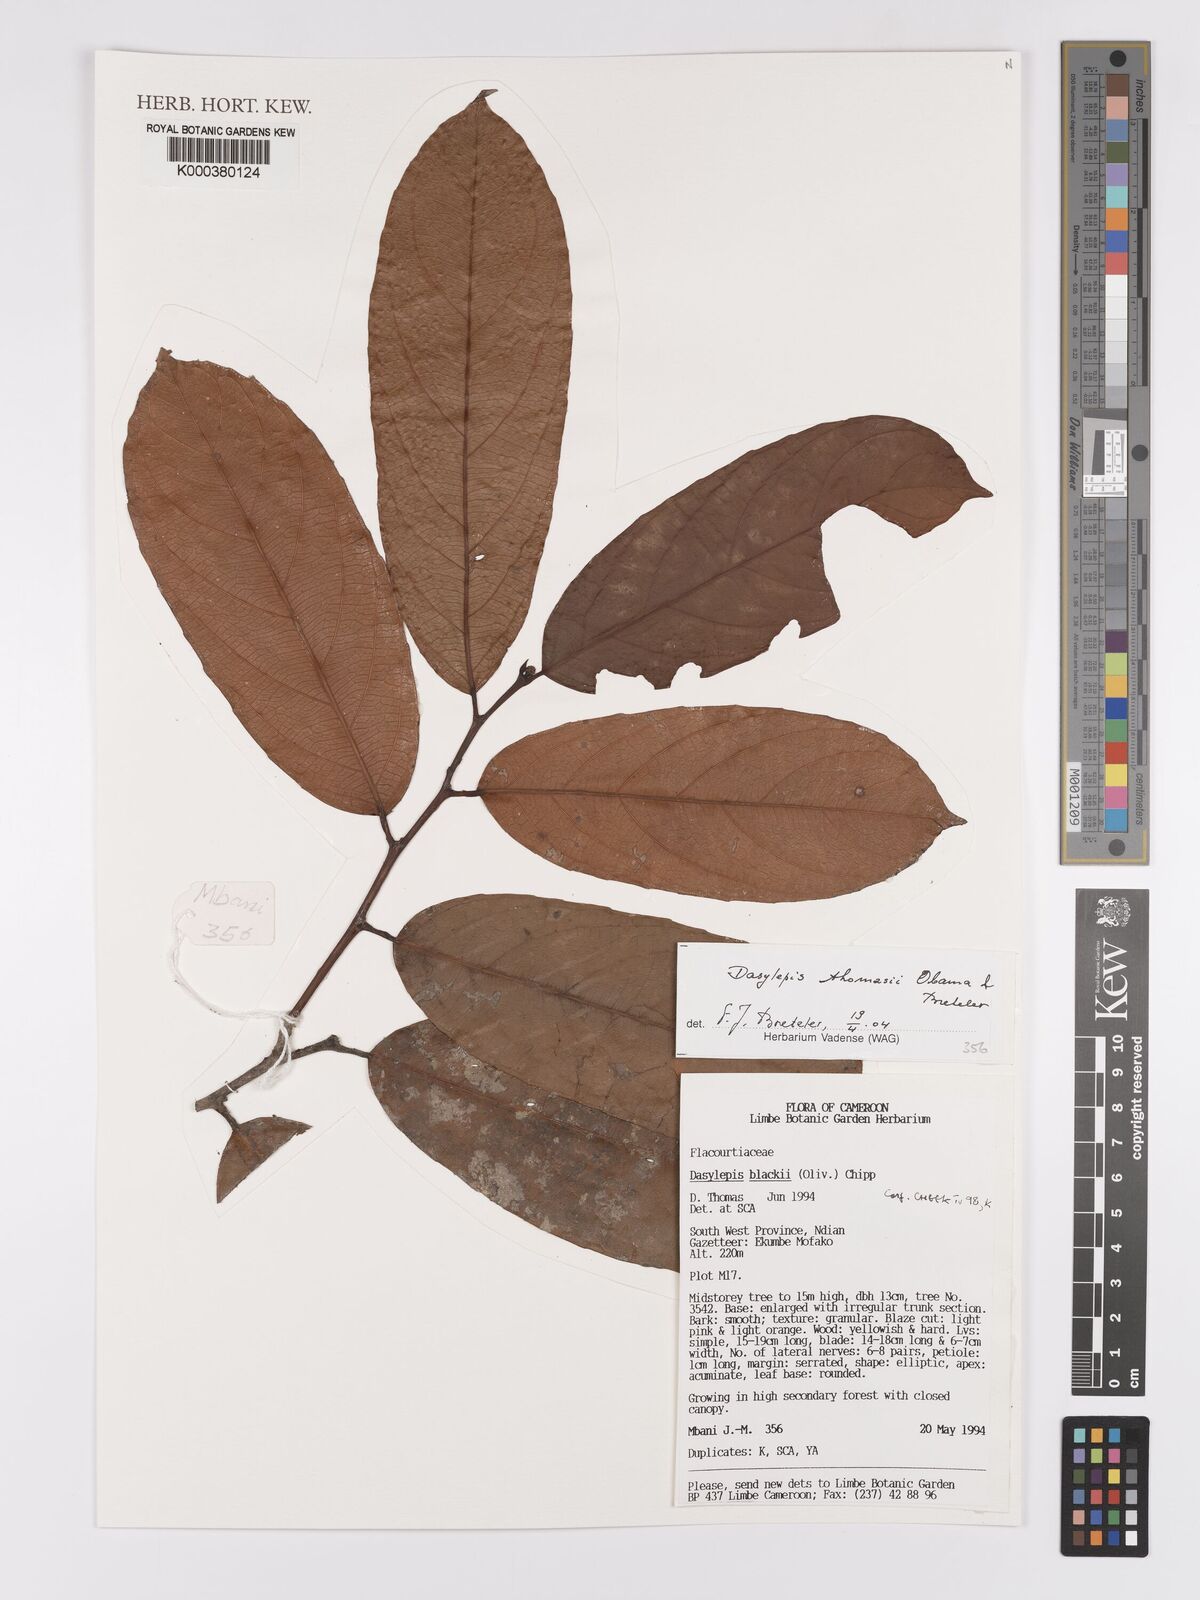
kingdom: Plantae
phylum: Tracheophyta
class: Magnoliopsida
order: Malpighiales
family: Achariaceae
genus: Dasylepis
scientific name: Dasylepis thomasii
